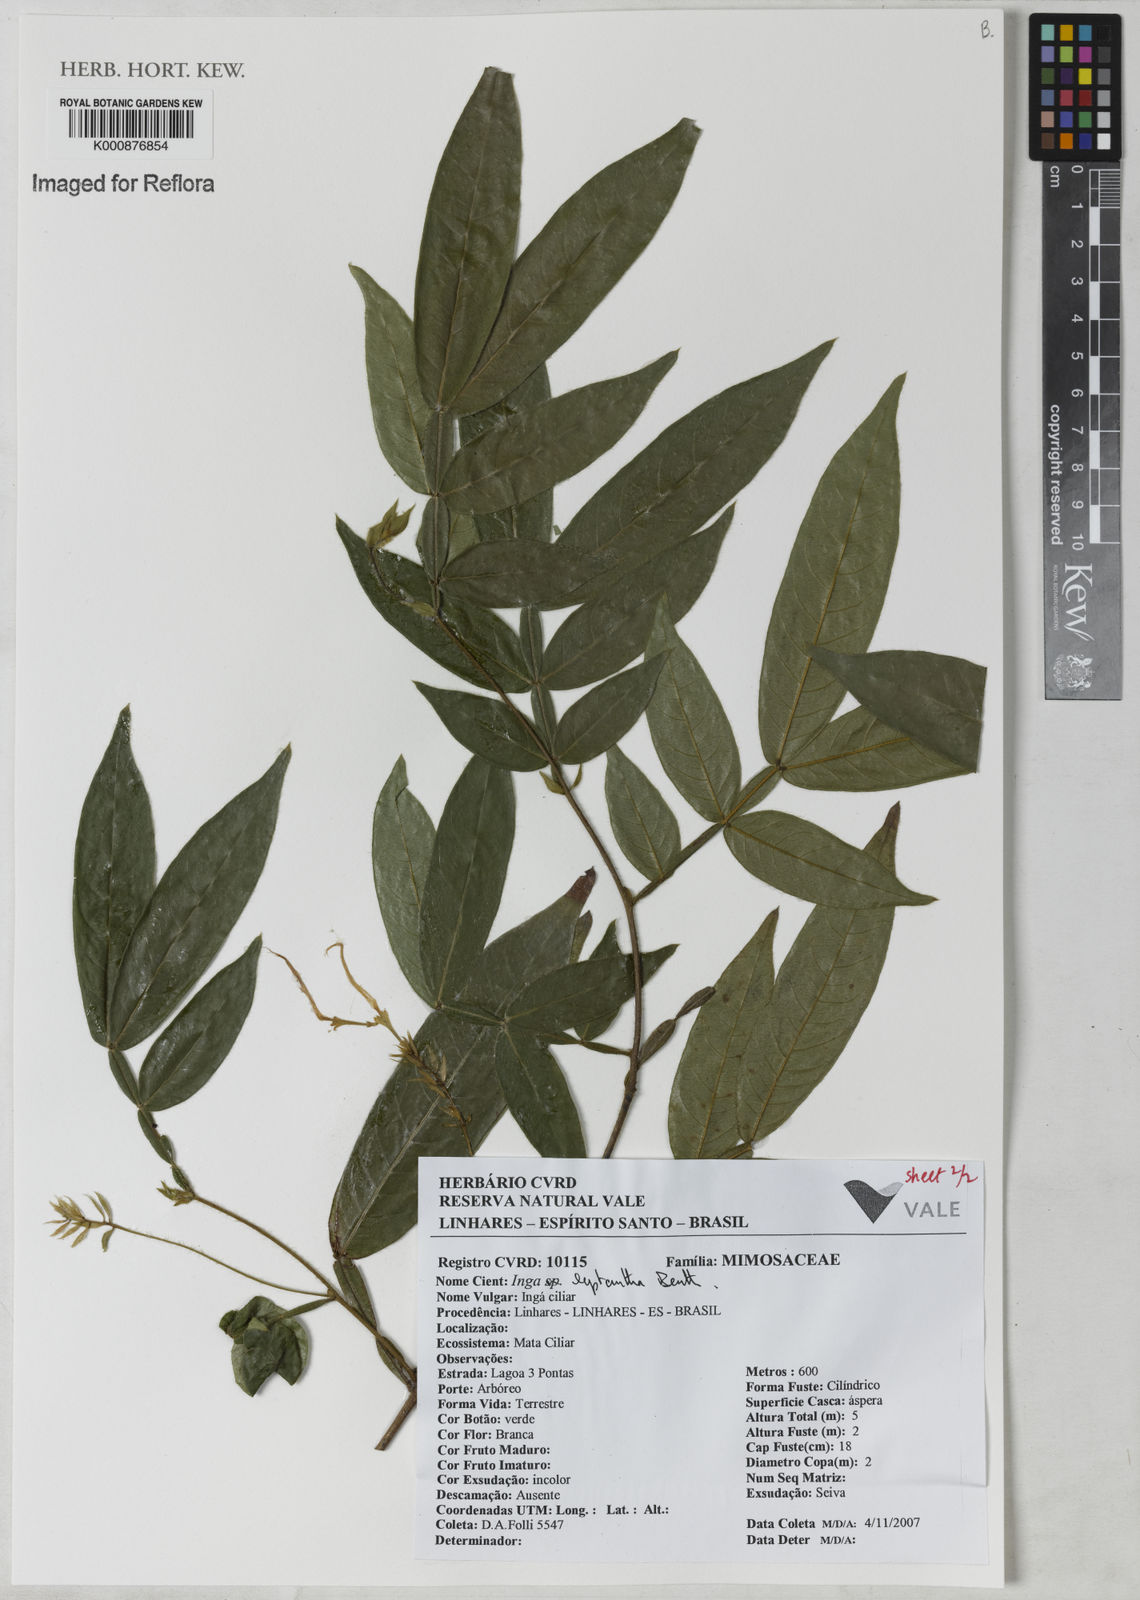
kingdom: Plantae
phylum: Tracheophyta
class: Magnoliopsida
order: Fabales
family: Fabaceae
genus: Inga
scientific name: Inga leptantha
